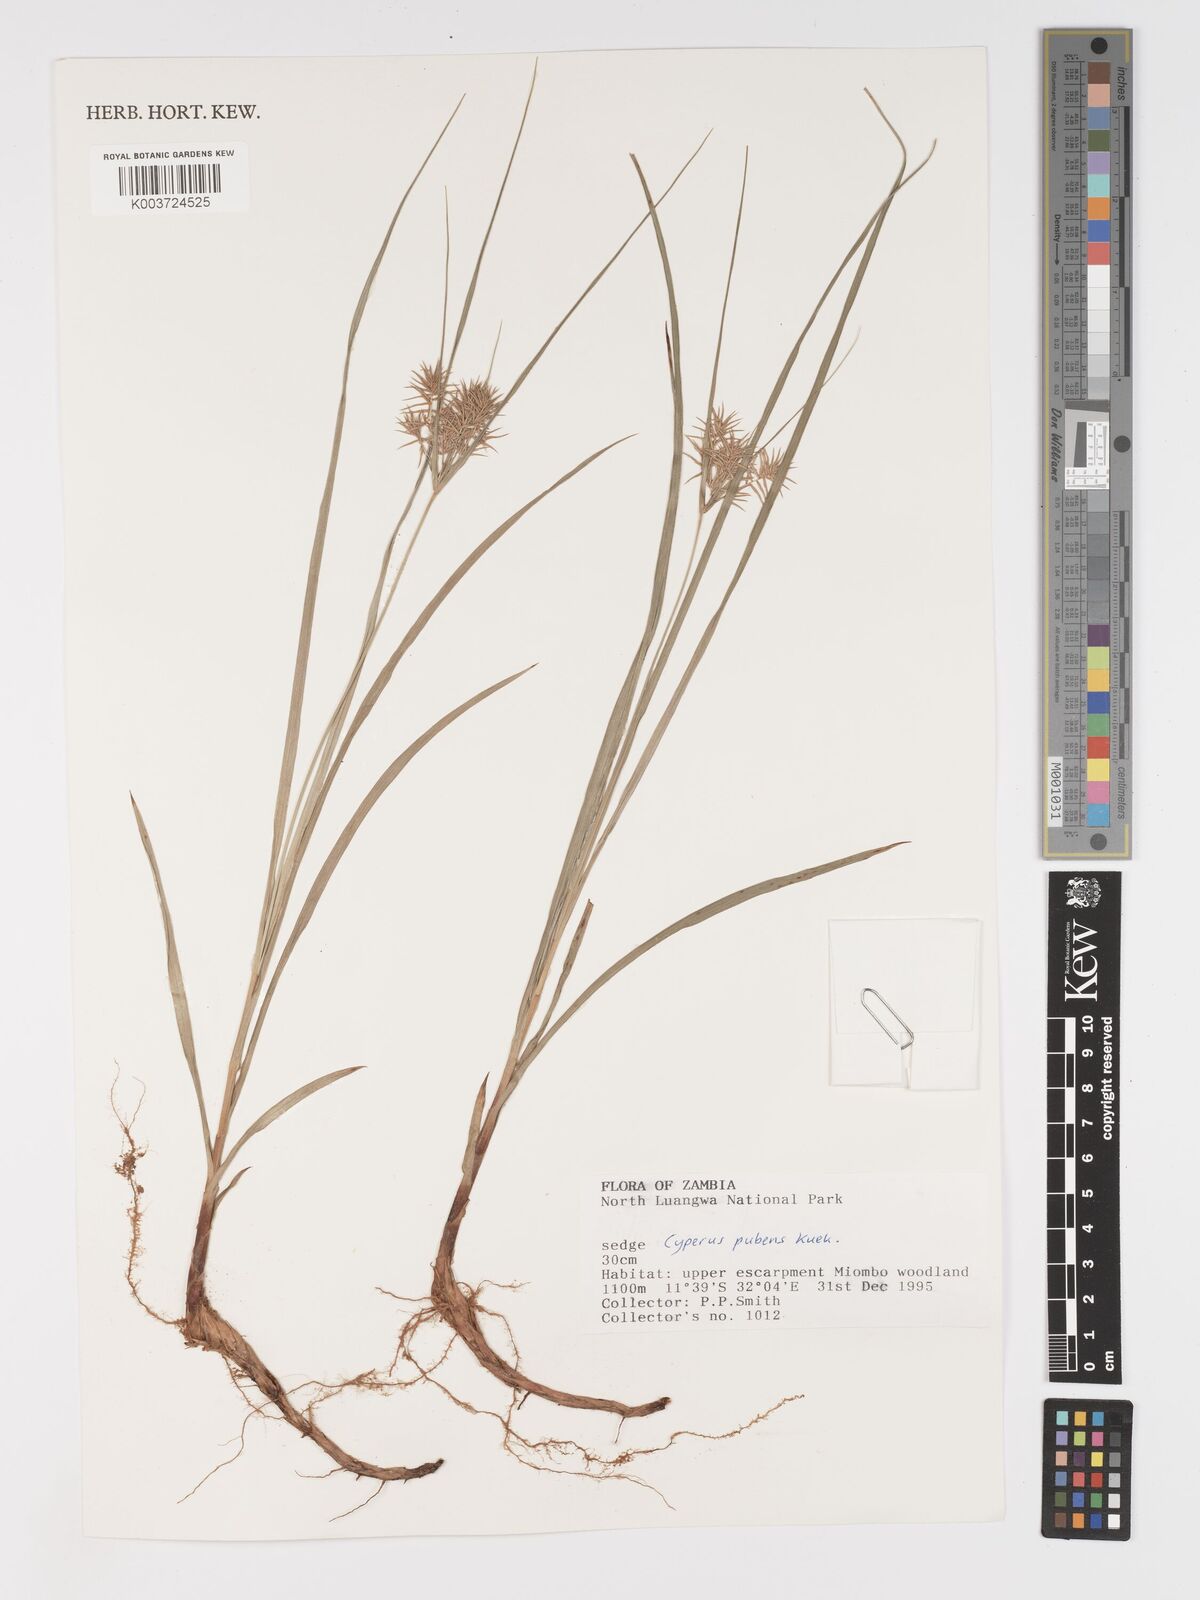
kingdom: Plantae
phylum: Tracheophyta
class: Liliopsida
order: Poales
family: Cyperaceae
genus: Cyperus
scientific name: Cyperus pubens
